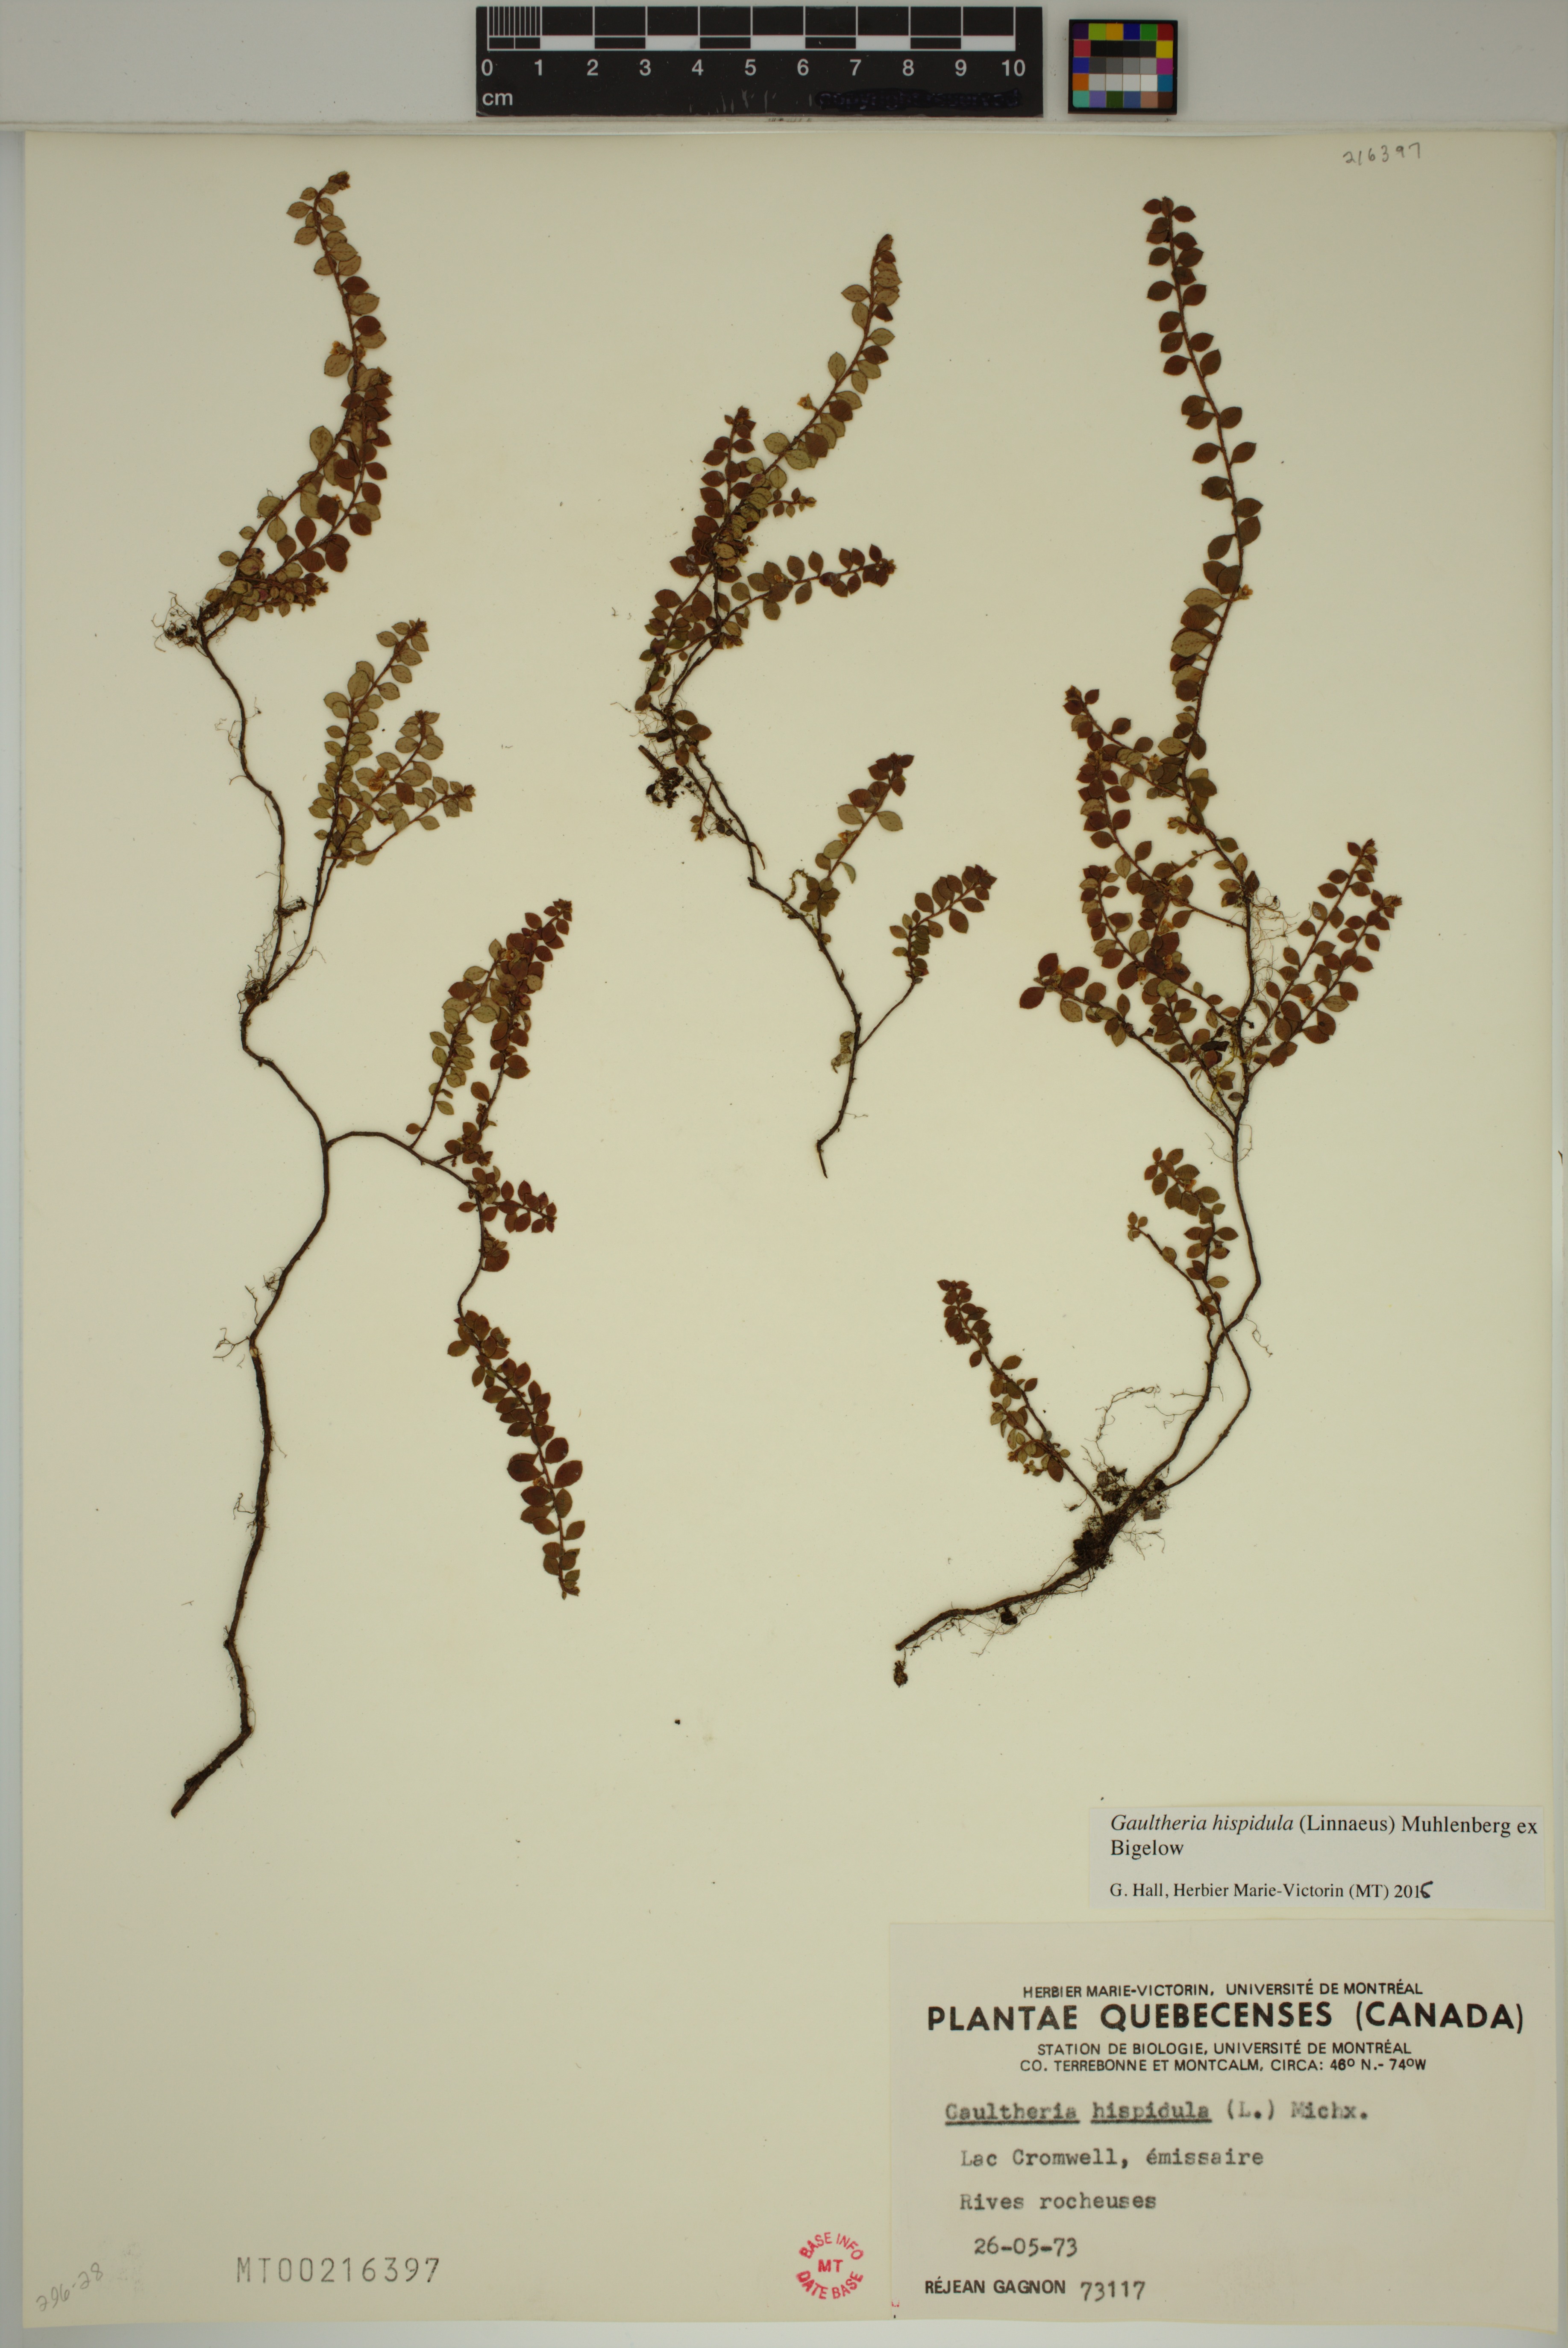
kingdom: Plantae
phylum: Tracheophyta
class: Magnoliopsida
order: Ericales
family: Ericaceae
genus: Gaultheria
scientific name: Gaultheria hispidula
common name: Cancer wintergreen
